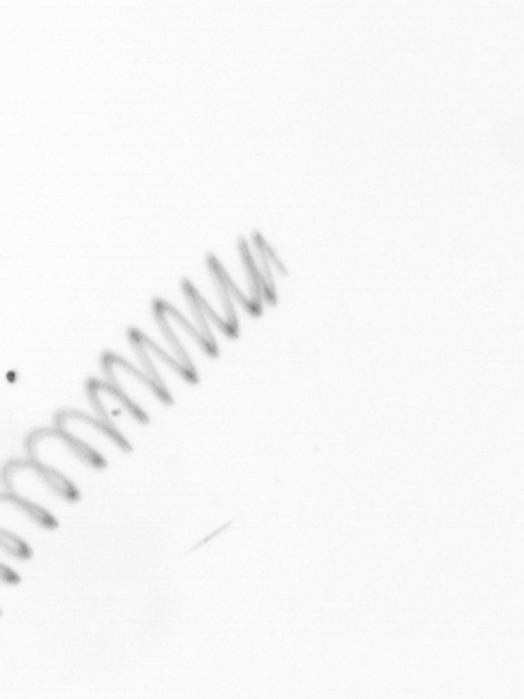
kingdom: Chromista
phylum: Ochrophyta
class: Bacillariophyceae
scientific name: Bacillariophyceae
